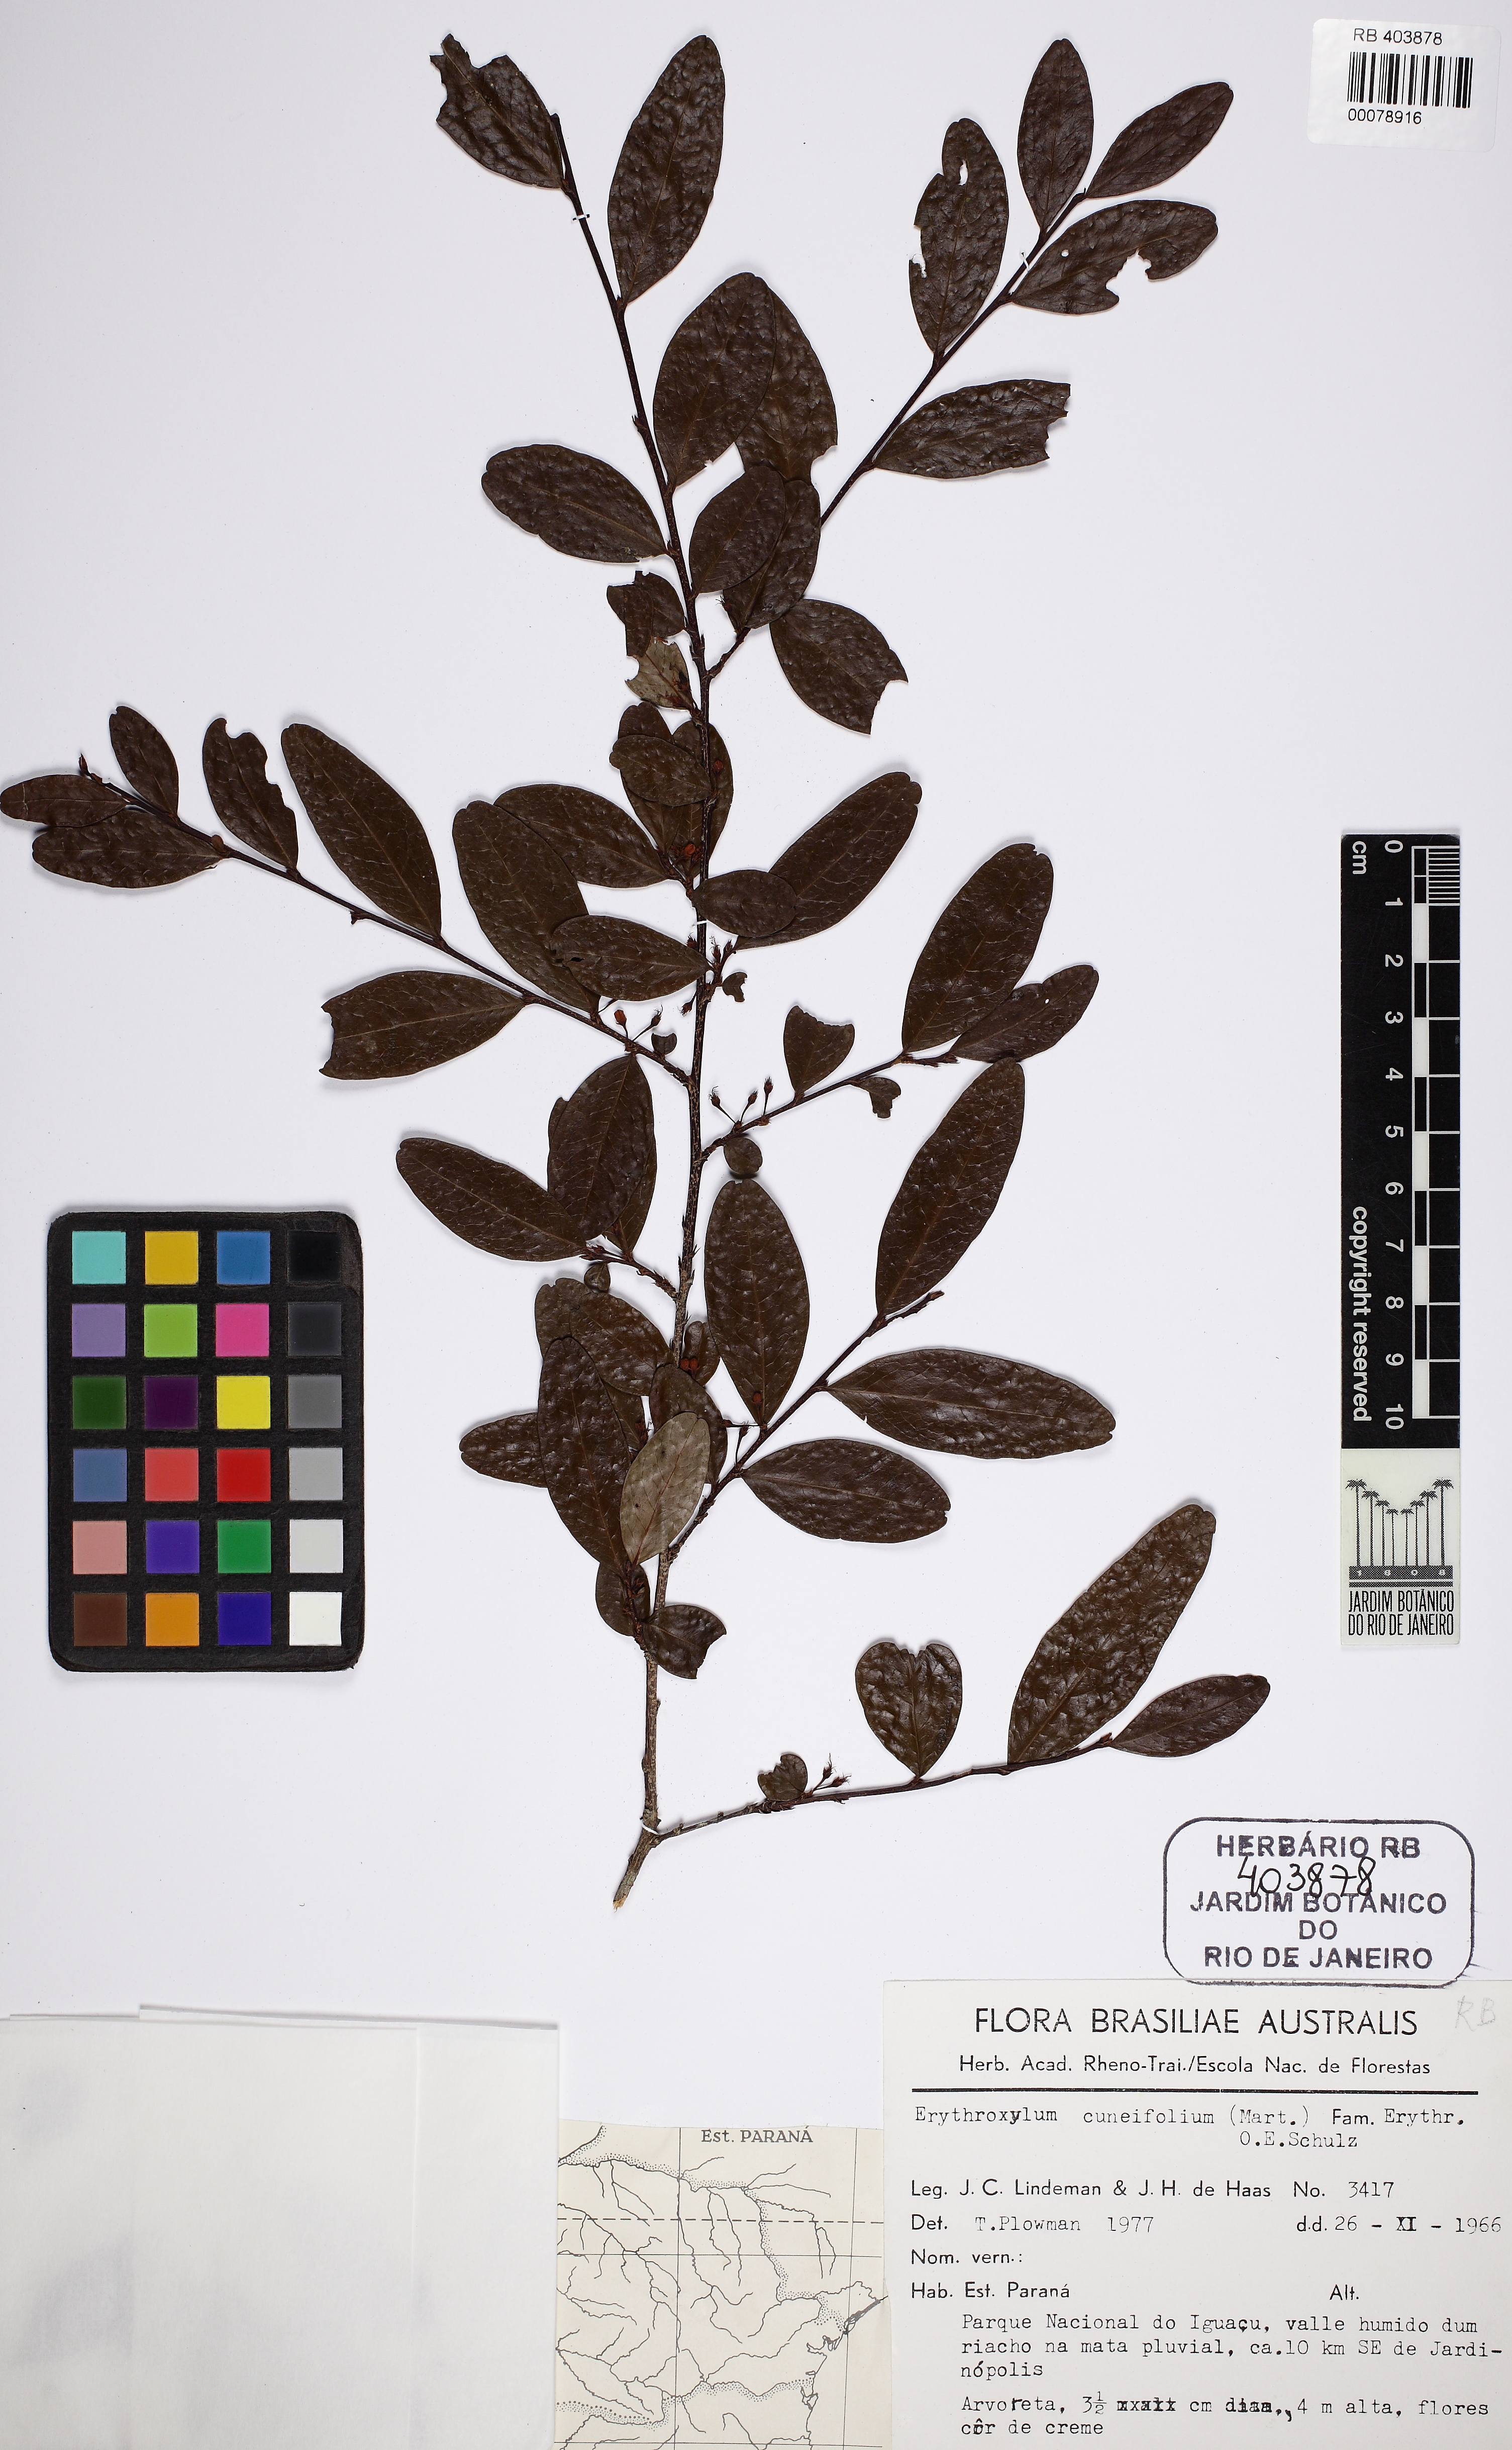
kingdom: Plantae
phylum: Tracheophyta
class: Magnoliopsida
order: Malpighiales
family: Erythroxylaceae
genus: Erythroxylum
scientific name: Erythroxylum cuneifolium
